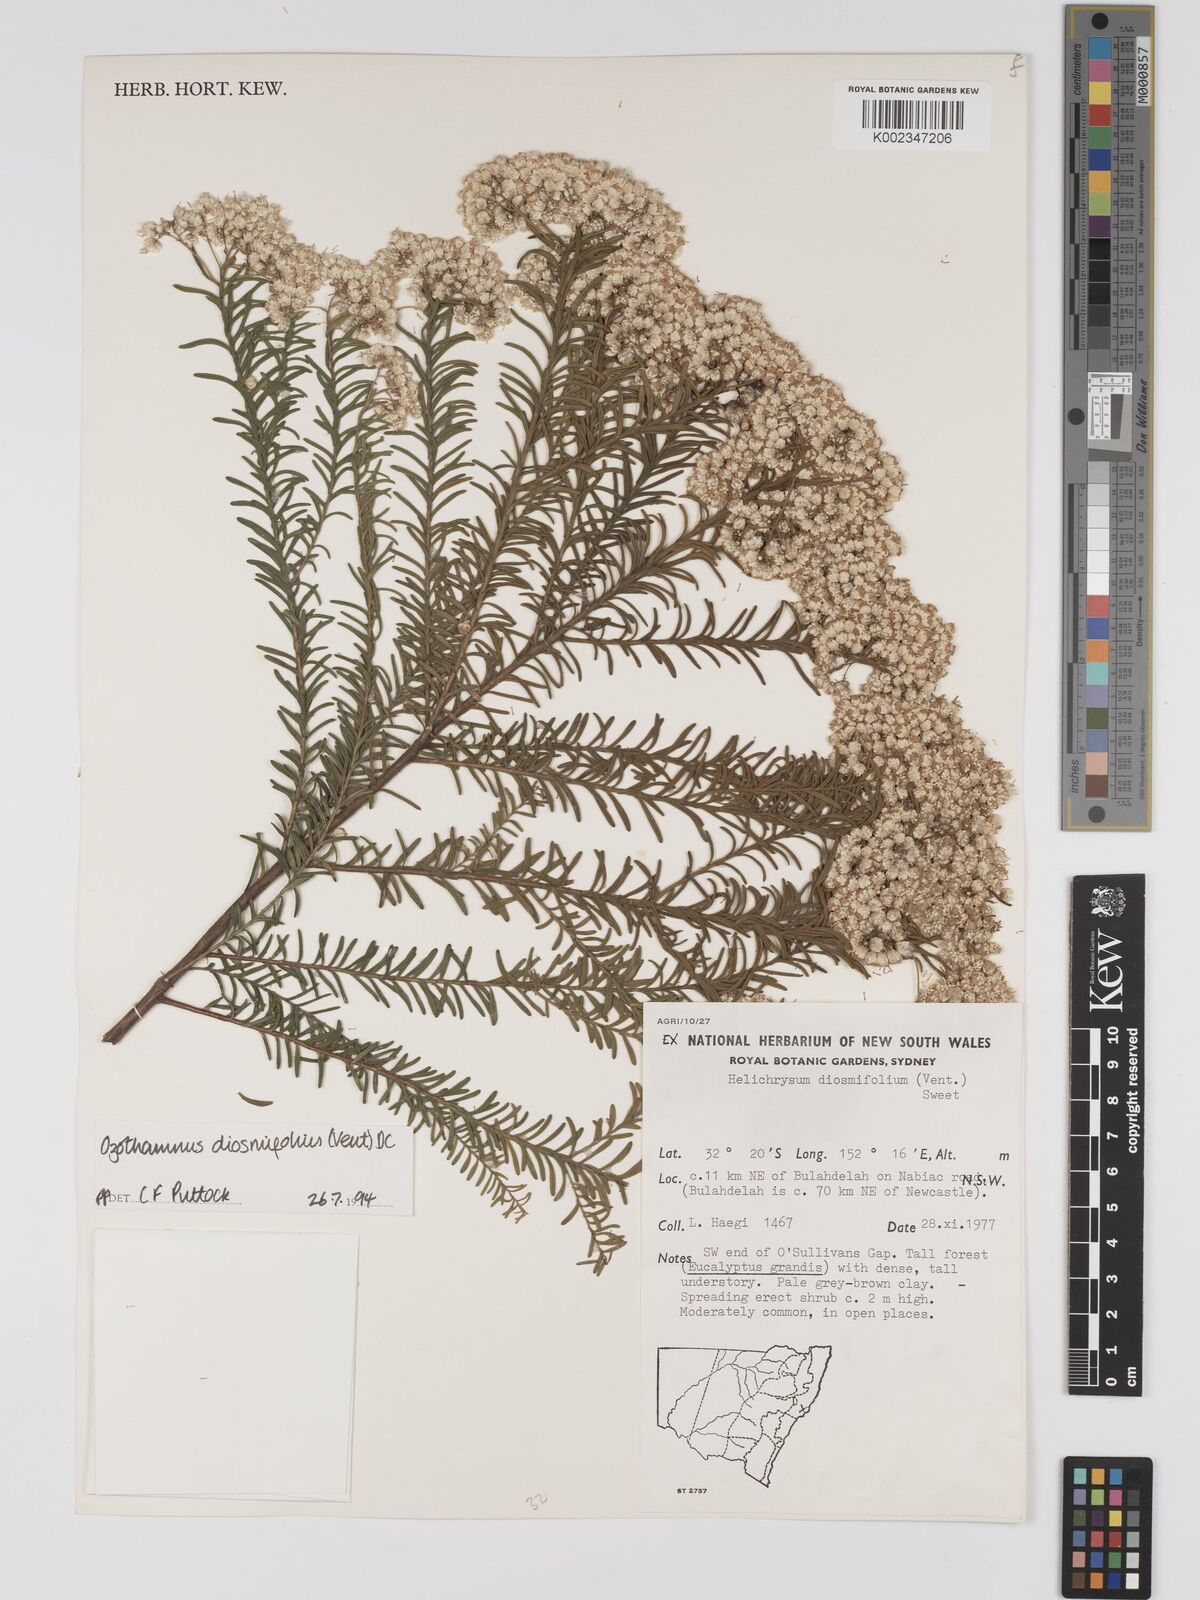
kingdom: Plantae
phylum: Tracheophyta
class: Magnoliopsida
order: Asterales
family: Asteraceae
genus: Ozothamnus
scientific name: Ozothamnus diosmifolius
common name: White-dogwood
